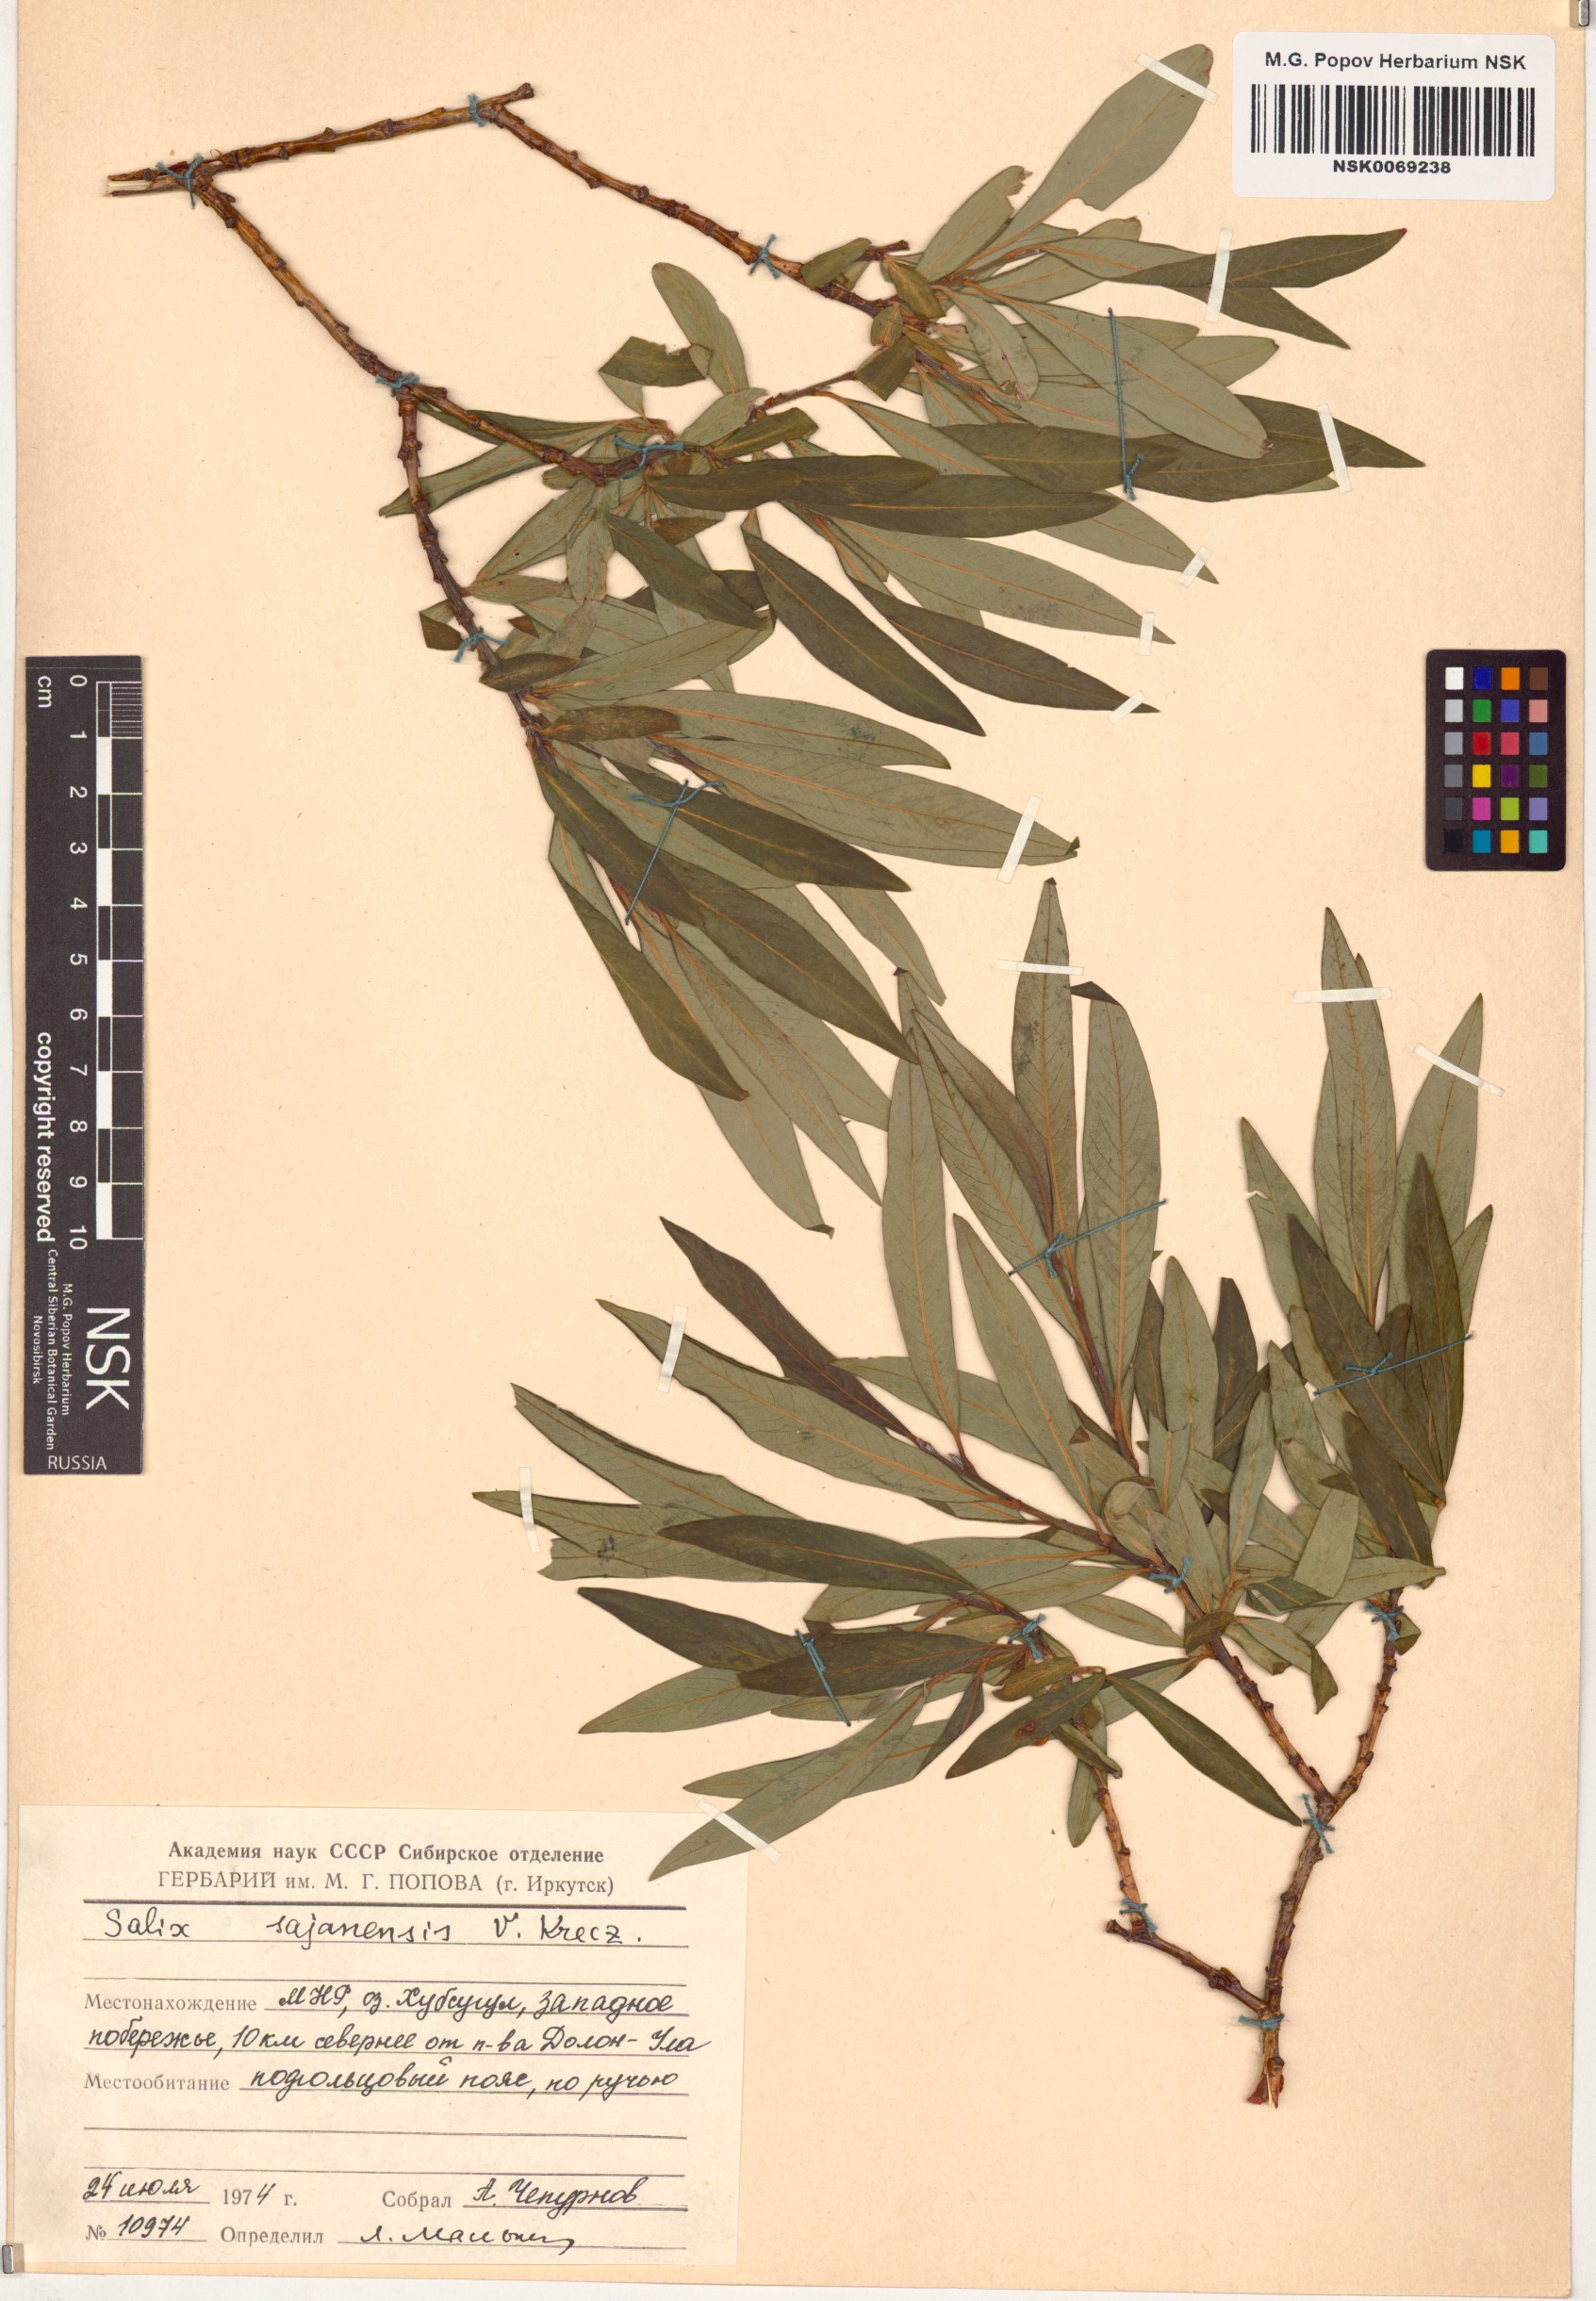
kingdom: Plantae
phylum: Tracheophyta
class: Magnoliopsida
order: Malpighiales
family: Salicaceae
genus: Salix
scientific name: Salix sajanensis
